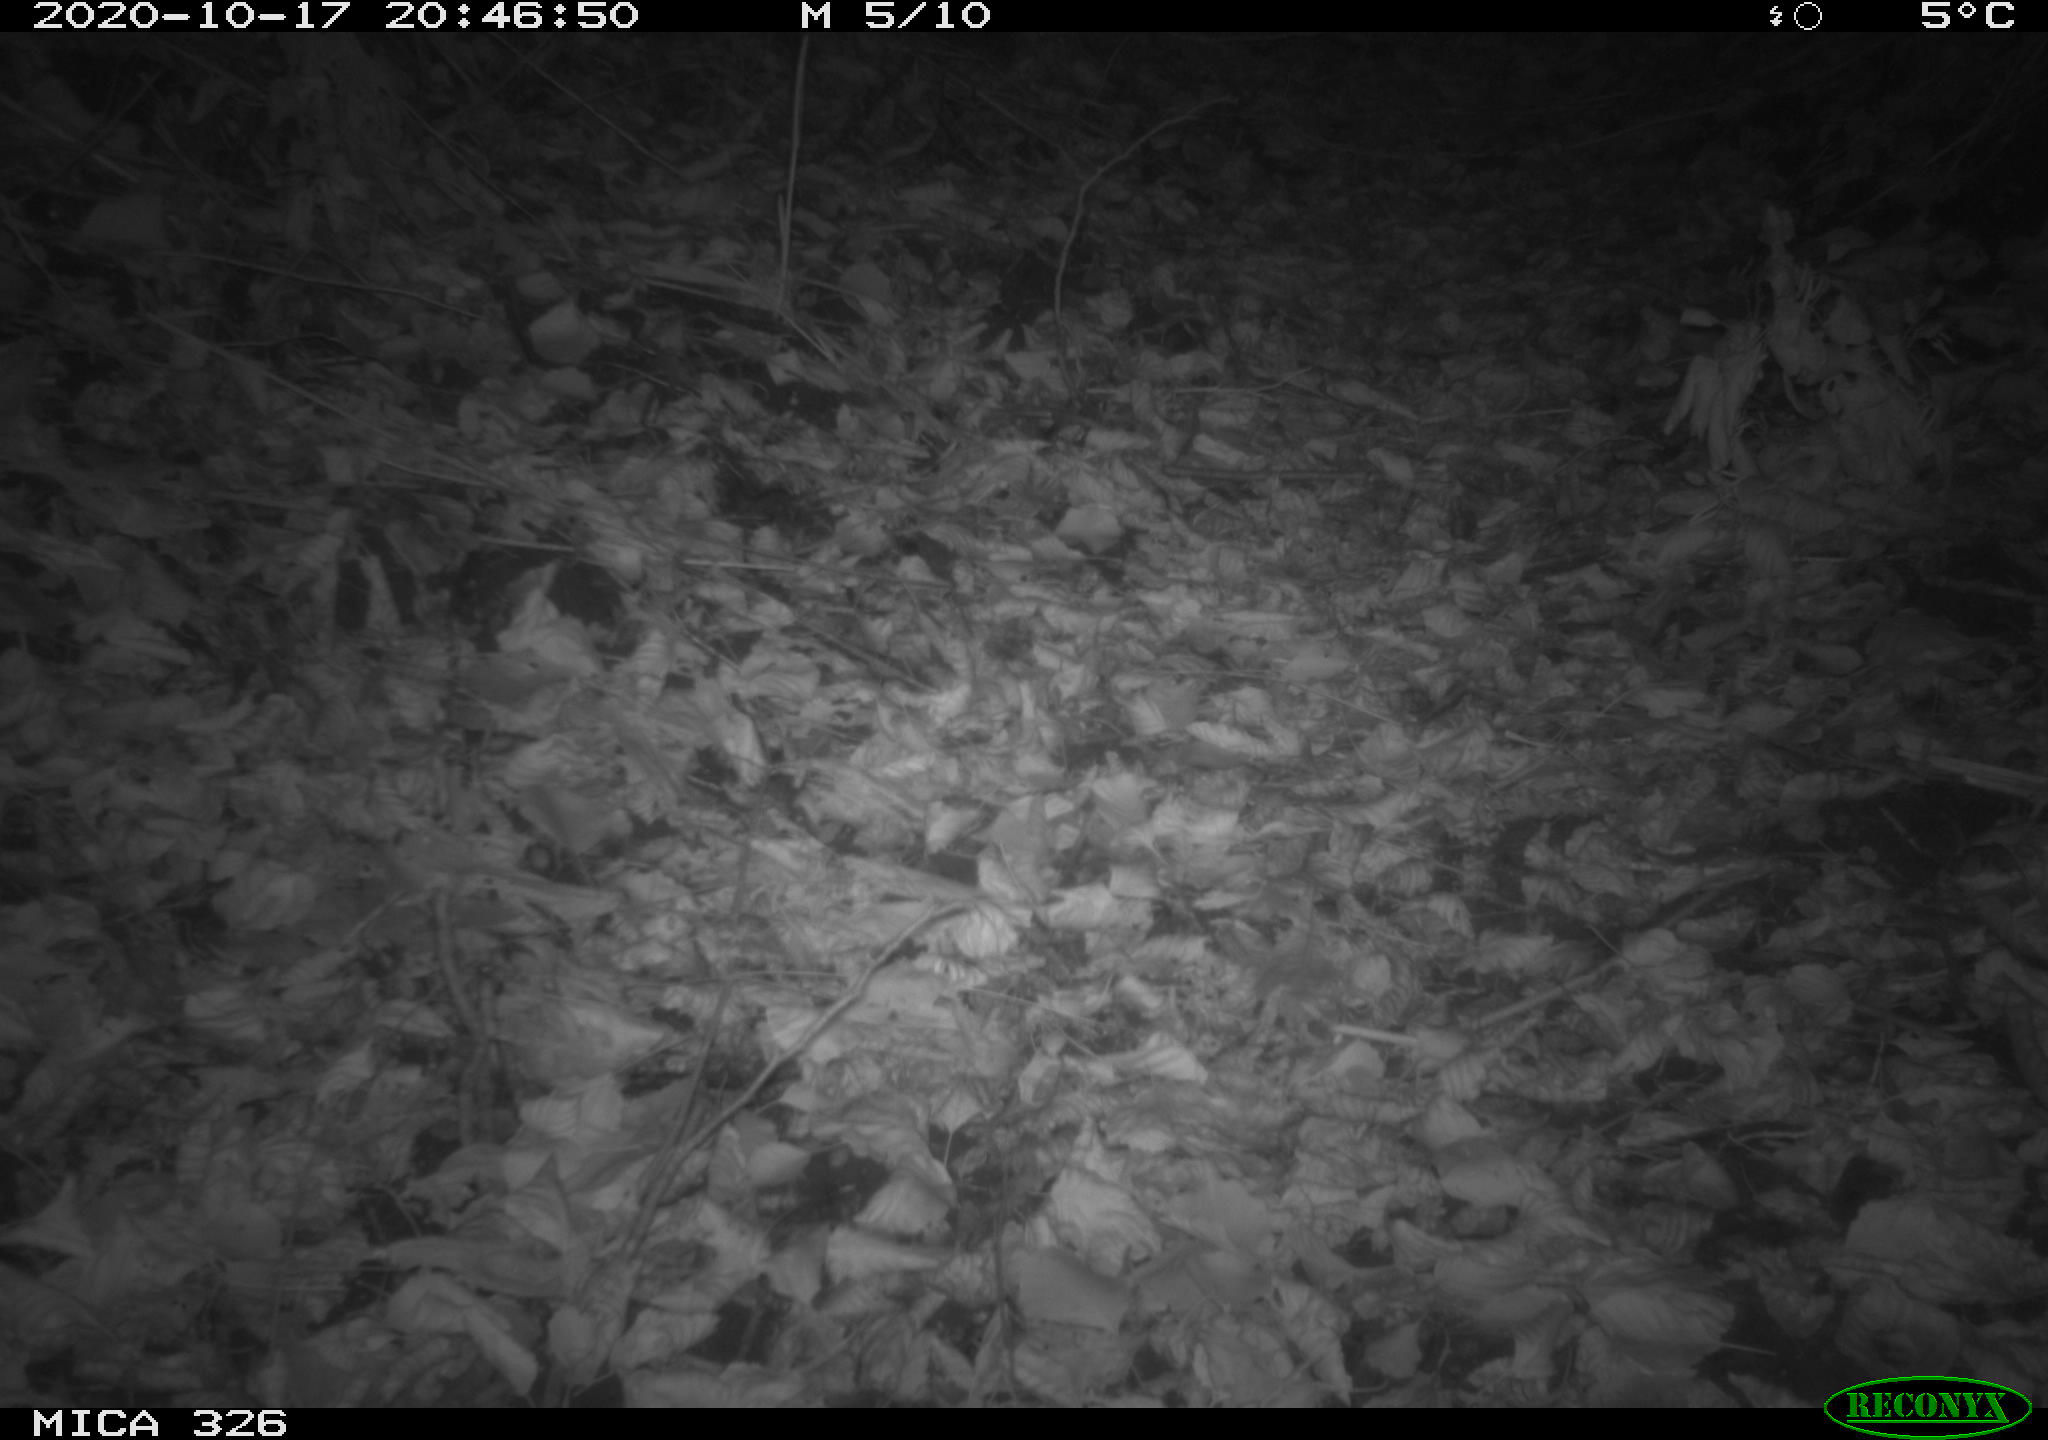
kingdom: Animalia
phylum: Chordata
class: Mammalia
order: Rodentia
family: Myocastoridae
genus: Myocastor
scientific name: Myocastor coypus
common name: Coypu
